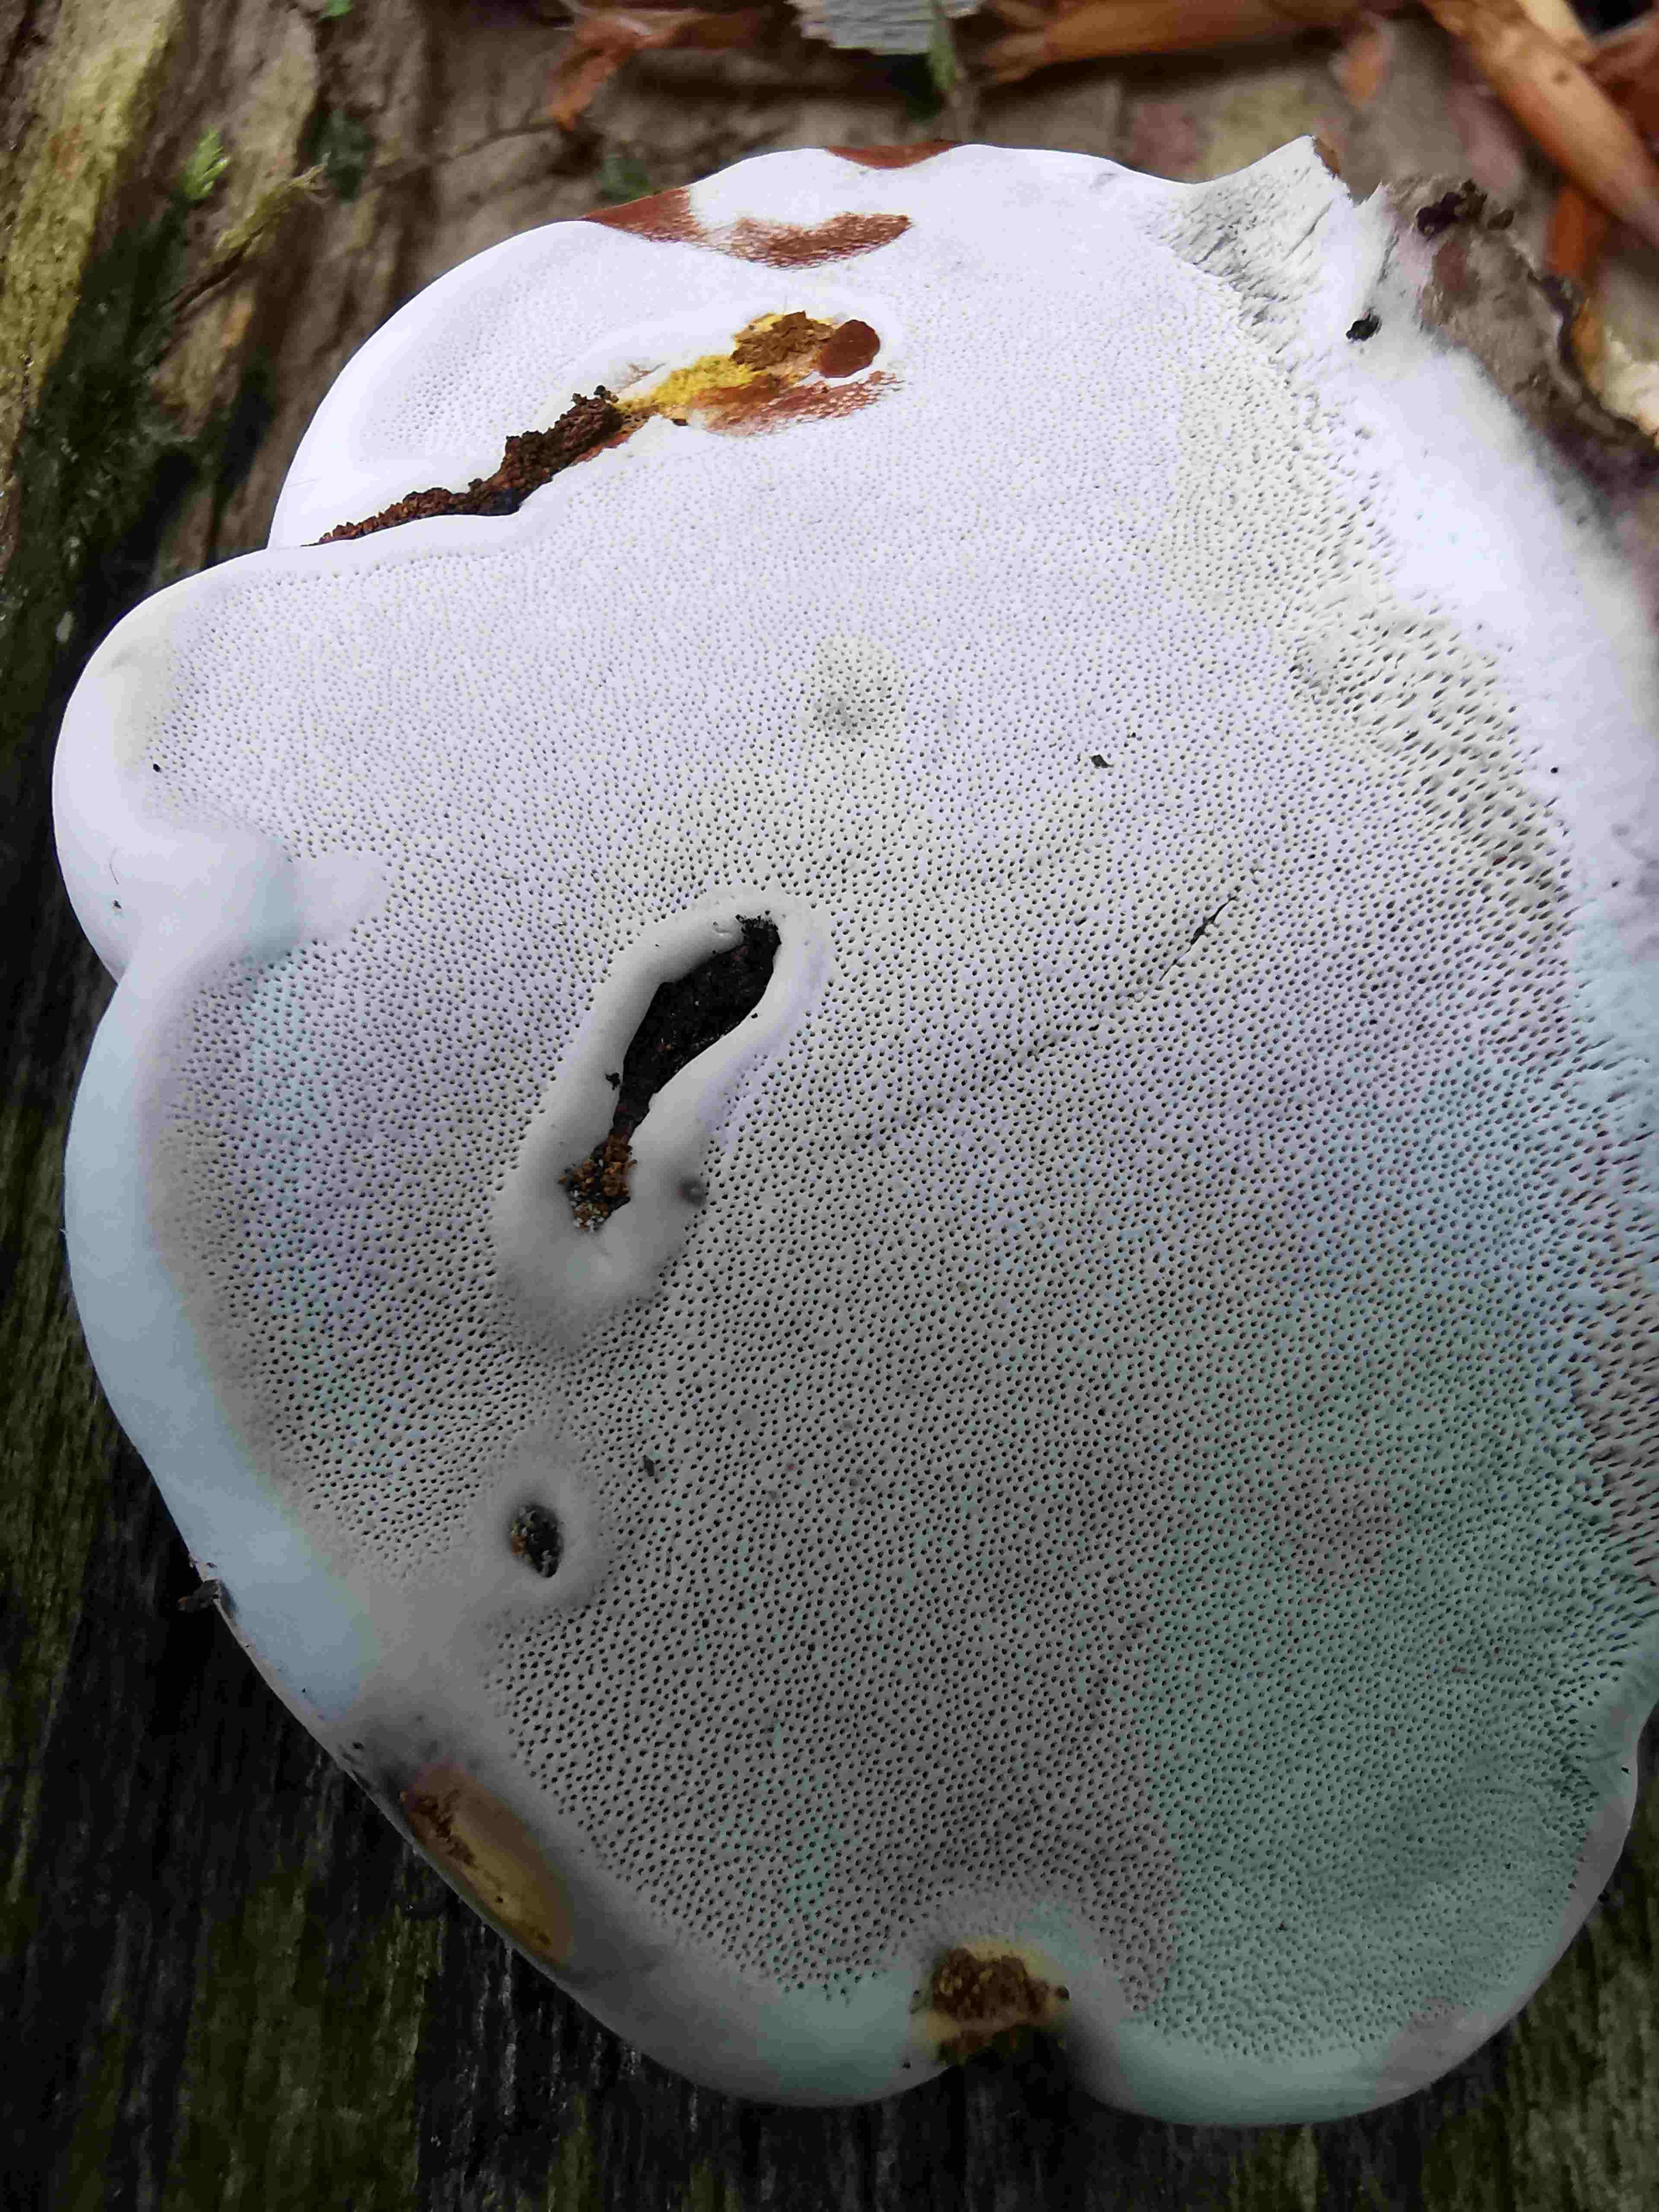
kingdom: Fungi
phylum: Basidiomycota
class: Agaricomycetes
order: Polyporales
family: Polyporaceae
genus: Ganoderma
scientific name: Ganoderma applanatum
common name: flad lakporesvamp
